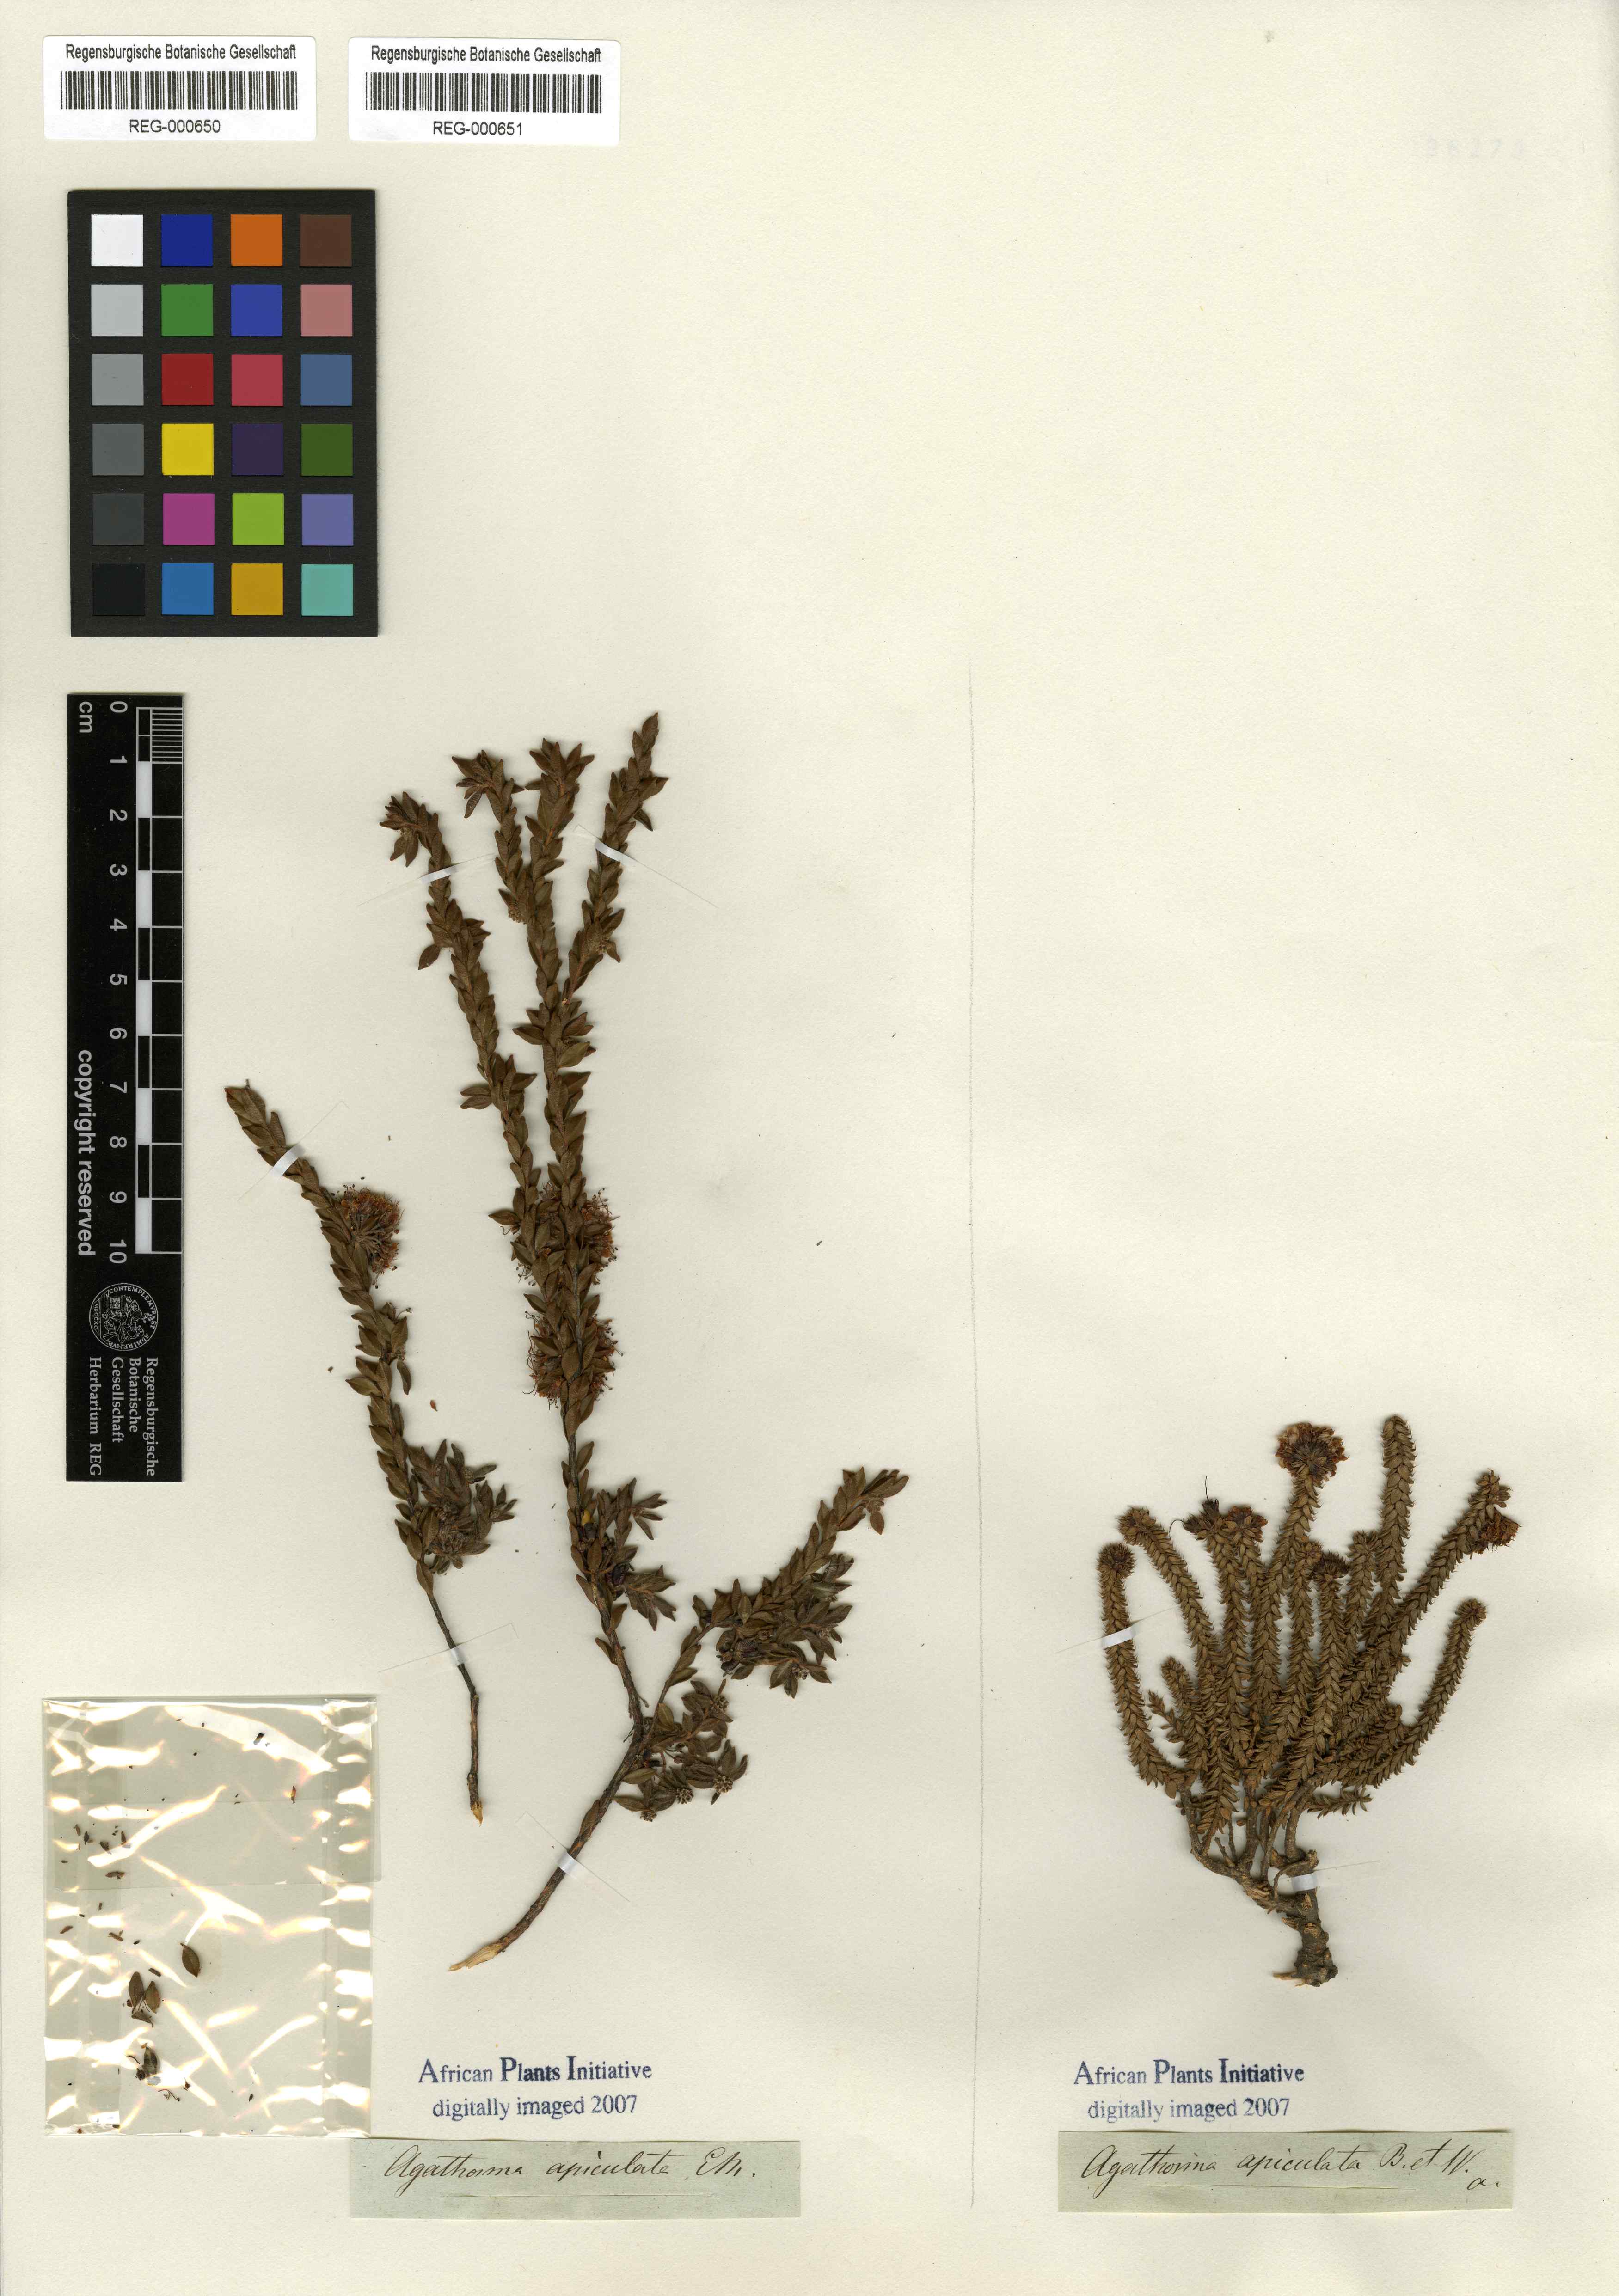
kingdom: Plantae
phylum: Tracheophyta
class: Magnoliopsida
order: Sapindales
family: Rutaceae
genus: Agathosma
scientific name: Agathosma leptospermoides
